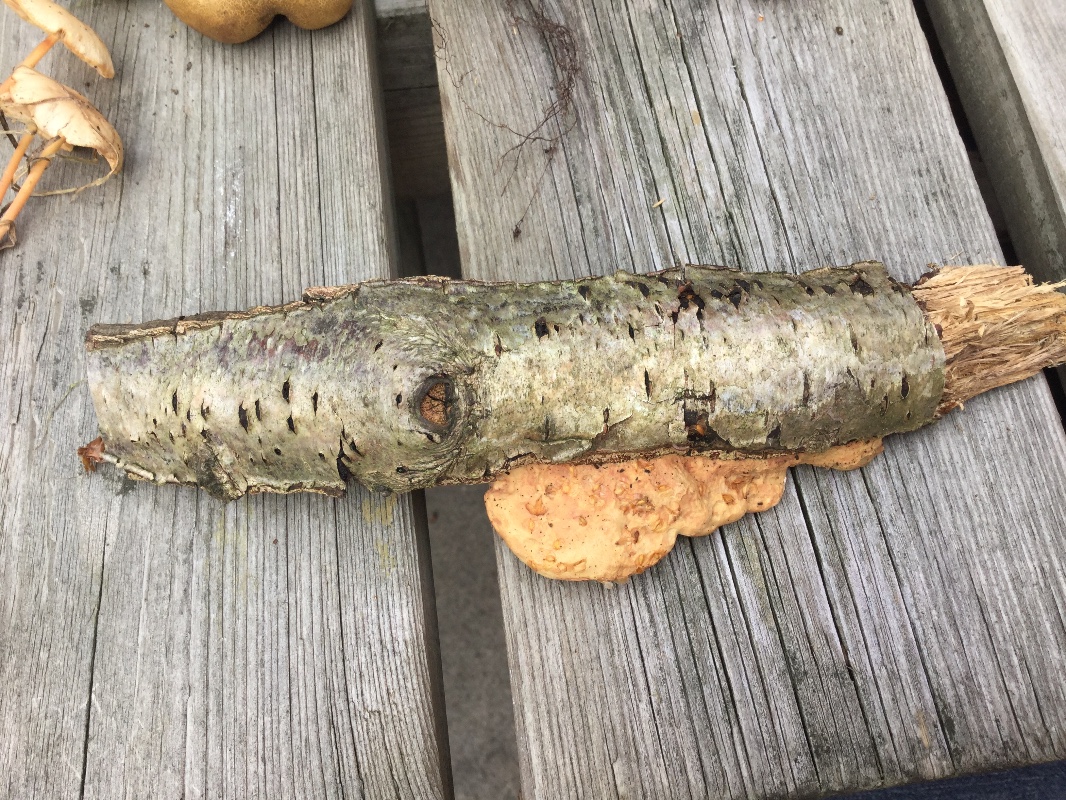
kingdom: Fungi
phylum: Basidiomycota
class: Agaricomycetes
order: Polyporales
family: Phanerochaetaceae
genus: Hapalopilus
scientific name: Hapalopilus rutilans
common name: rødlig okkerporesvamp
